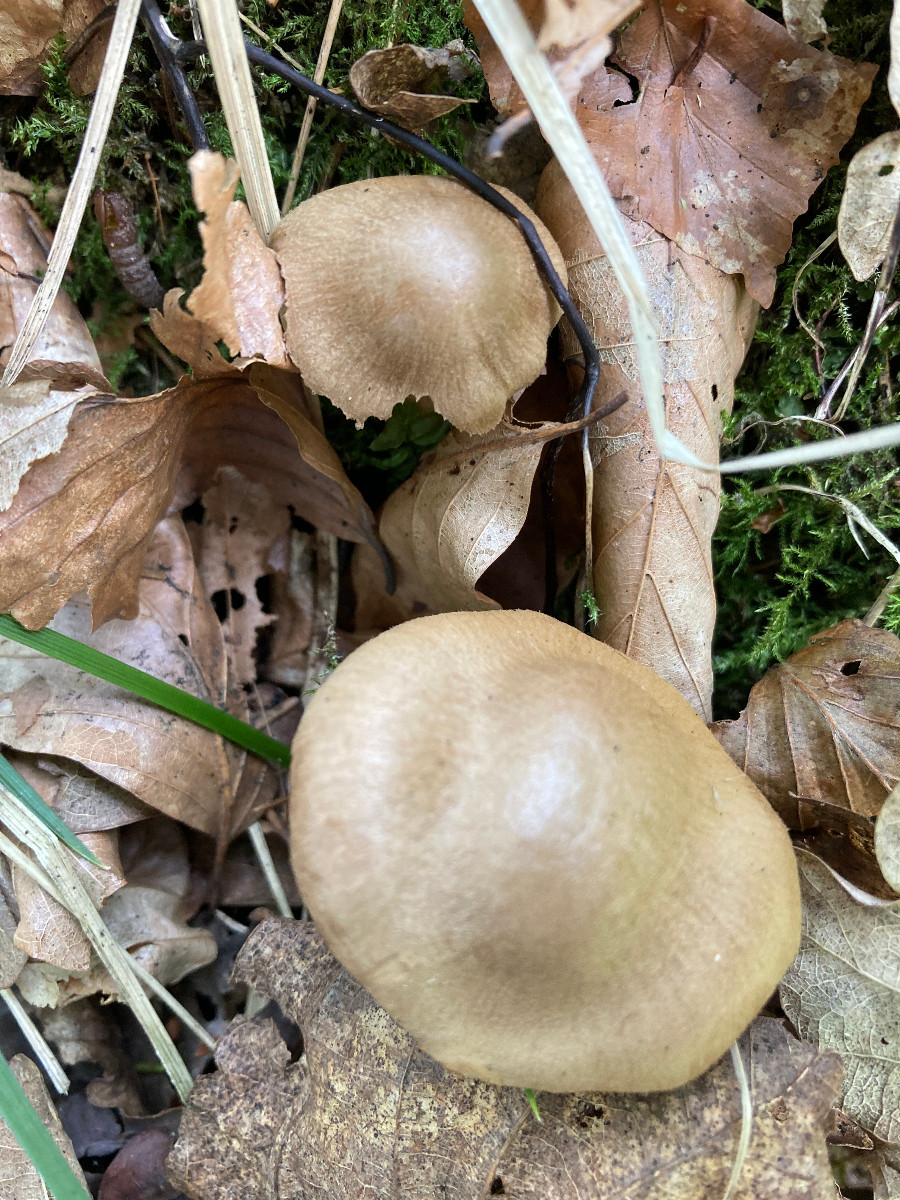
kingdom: Fungi
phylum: Basidiomycota
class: Agaricomycetes
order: Agaricales
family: Cortinariaceae
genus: Cortinarius
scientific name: Cortinarius
